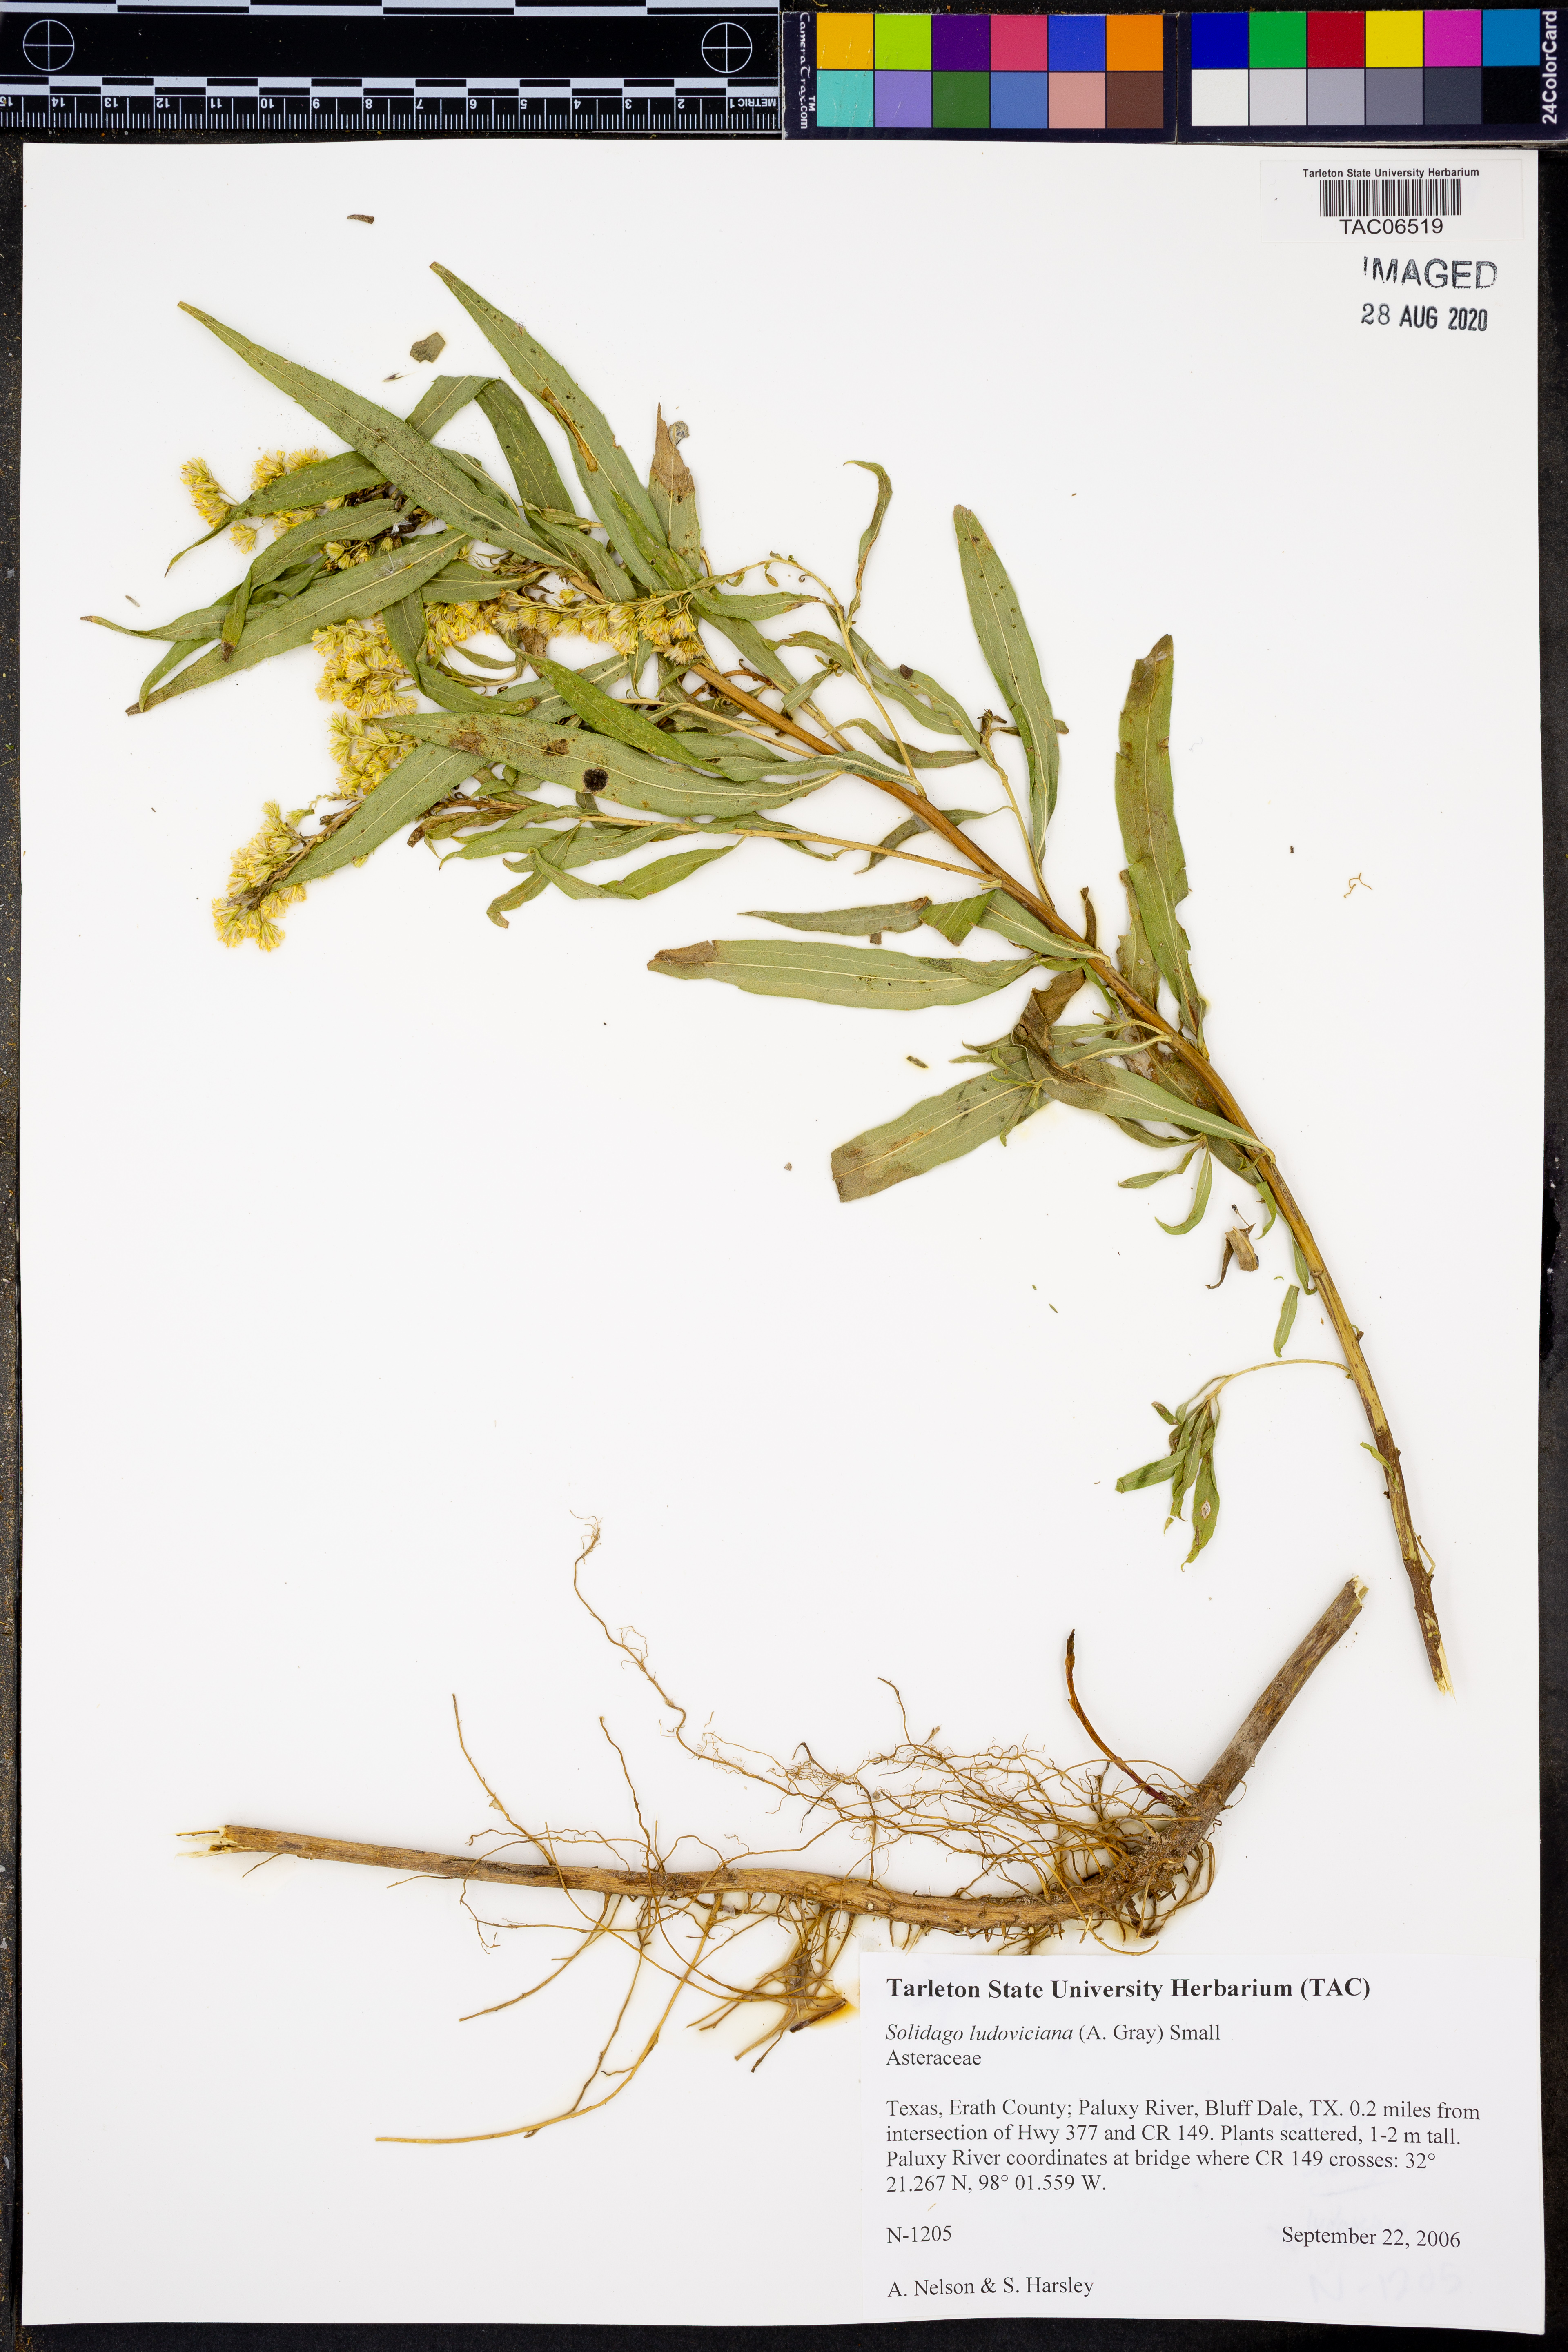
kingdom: Plantae
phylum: Tracheophyta
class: Magnoliopsida
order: Asterales
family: Asteraceae
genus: Solidago
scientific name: Solidago ludoviciana
